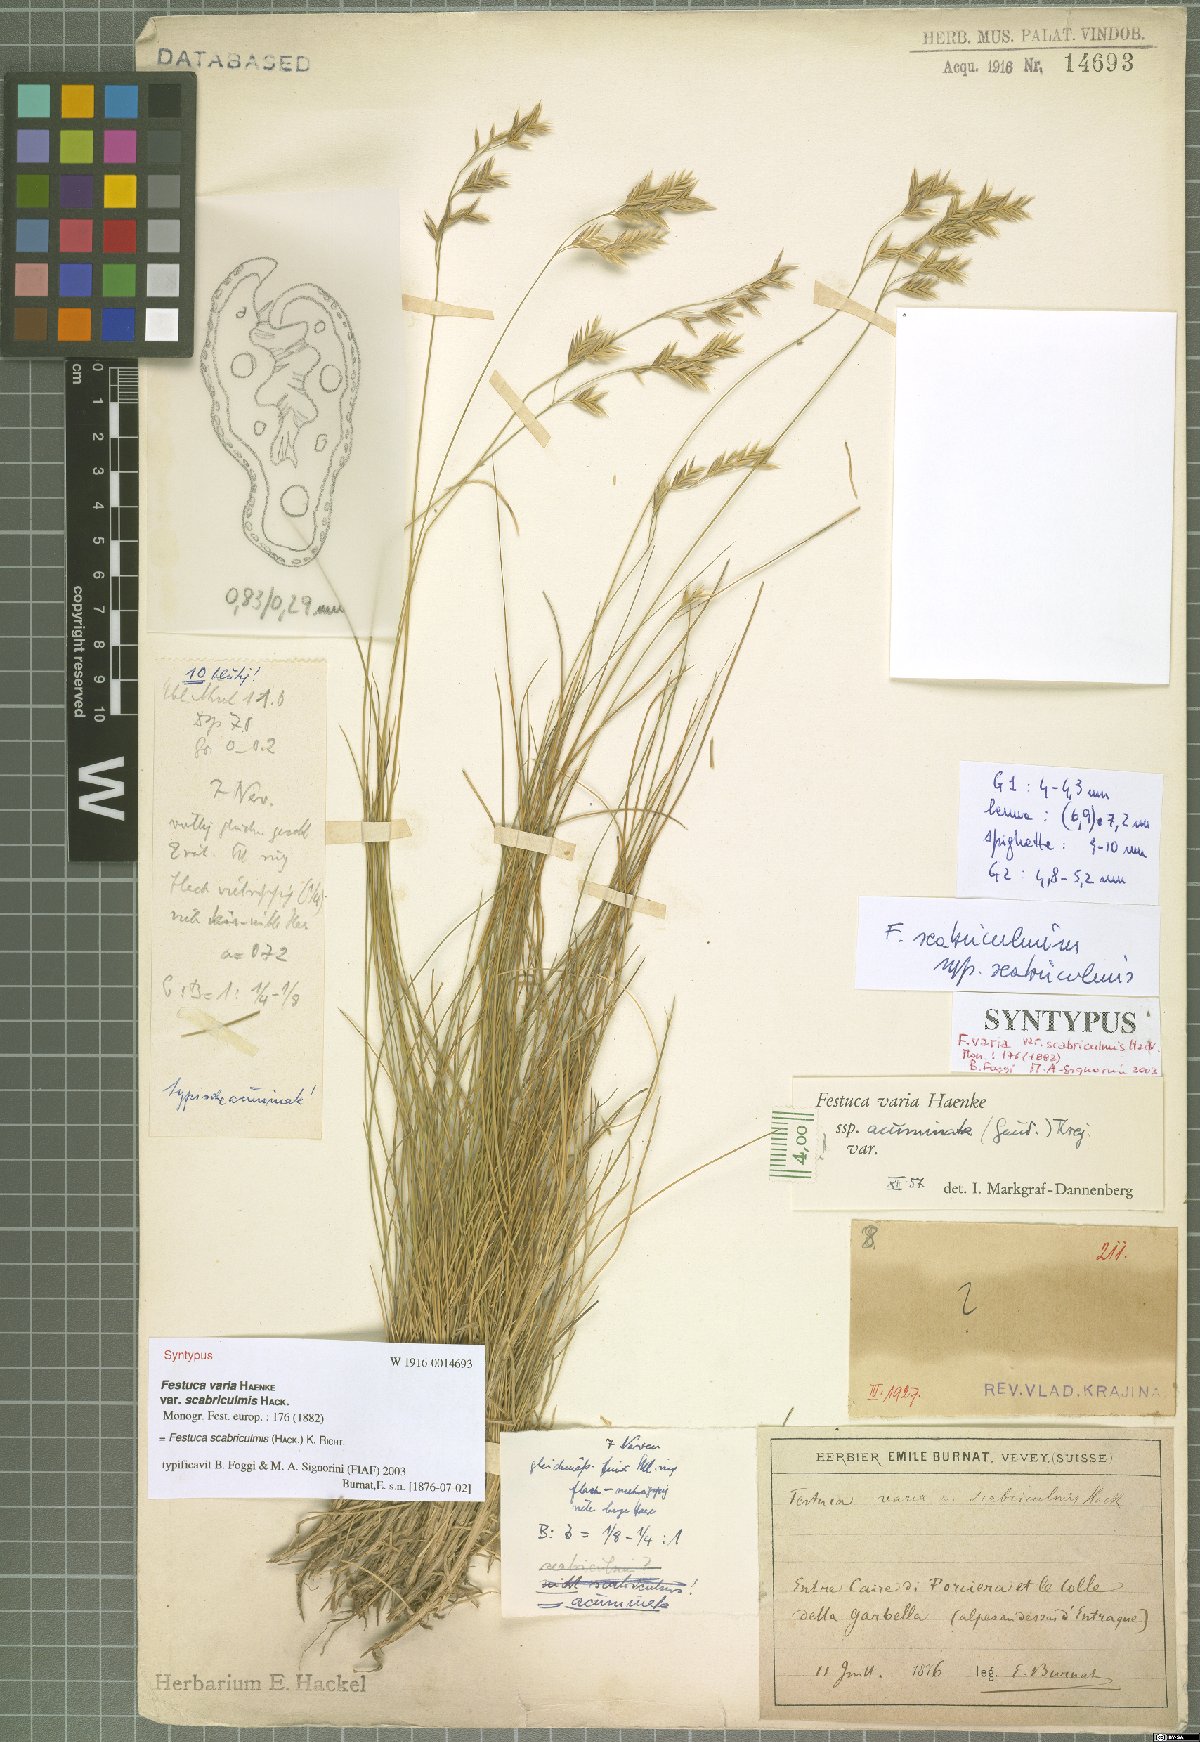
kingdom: Plantae
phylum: Tracheophyta
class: Liliopsida
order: Poales
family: Poaceae
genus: Festuca
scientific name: Festuca scabriculmis
